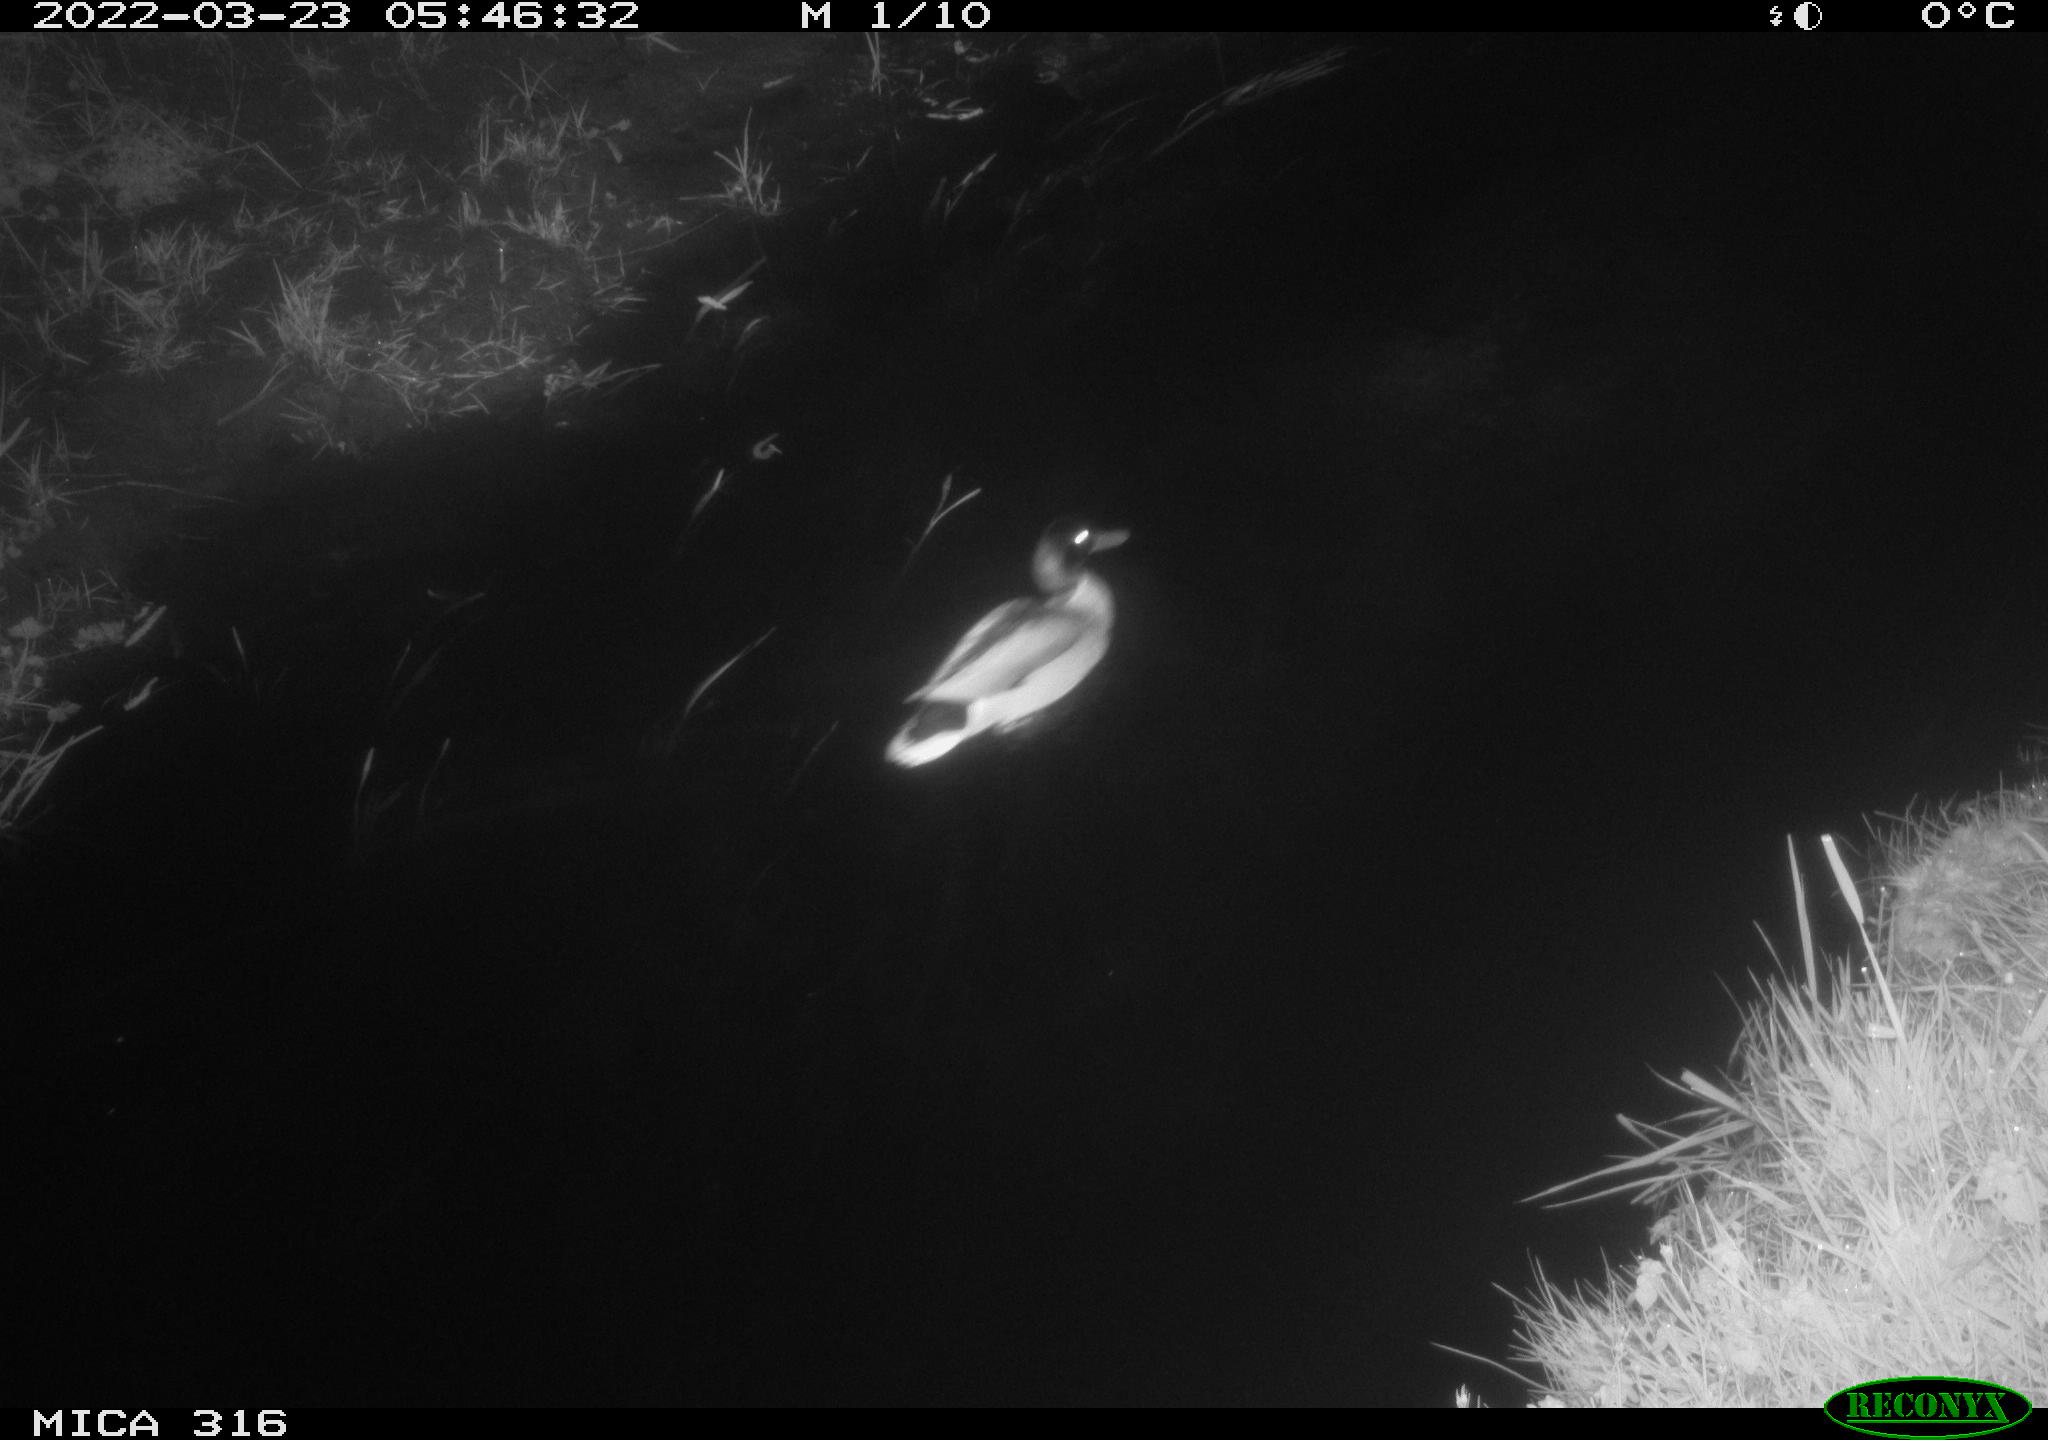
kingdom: Animalia
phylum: Chordata
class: Aves
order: Anseriformes
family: Anatidae
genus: Anas
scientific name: Anas platyrhynchos
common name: Mallard
